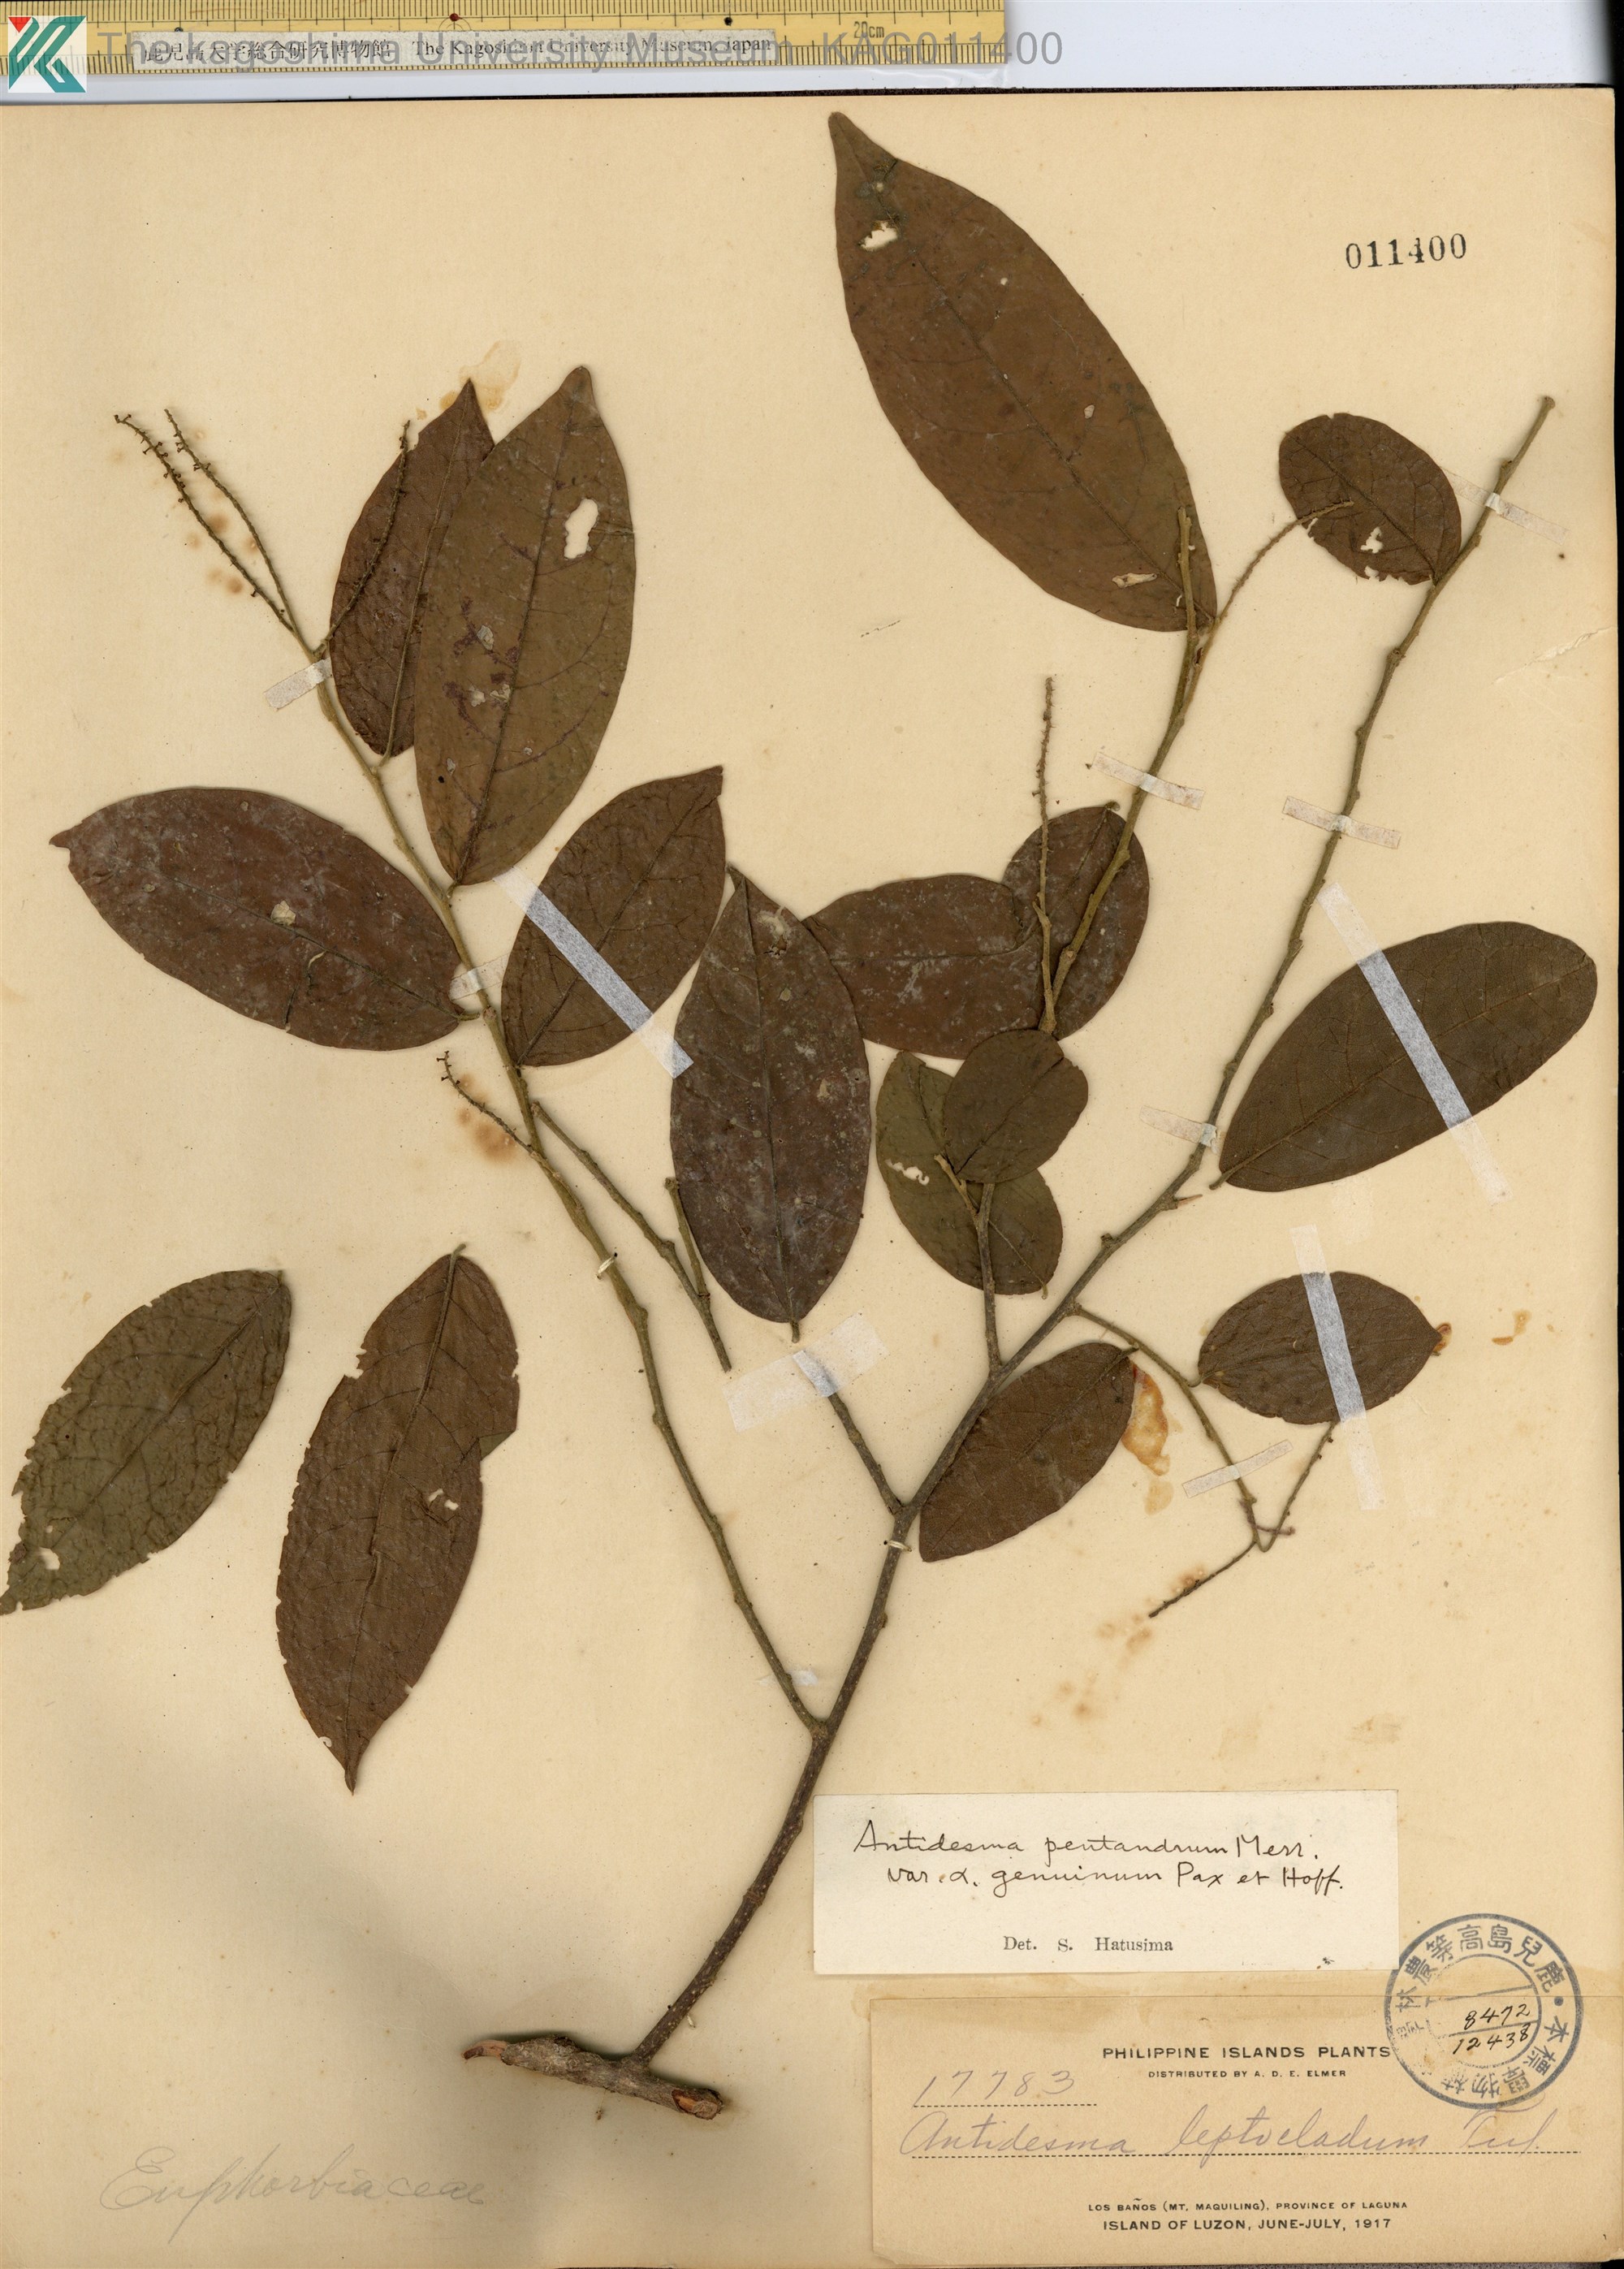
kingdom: Plantae
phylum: Tracheophyta
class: Magnoliopsida
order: Malpighiales
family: Phyllanthaceae
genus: Antidesma
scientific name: Antidesma montanum
